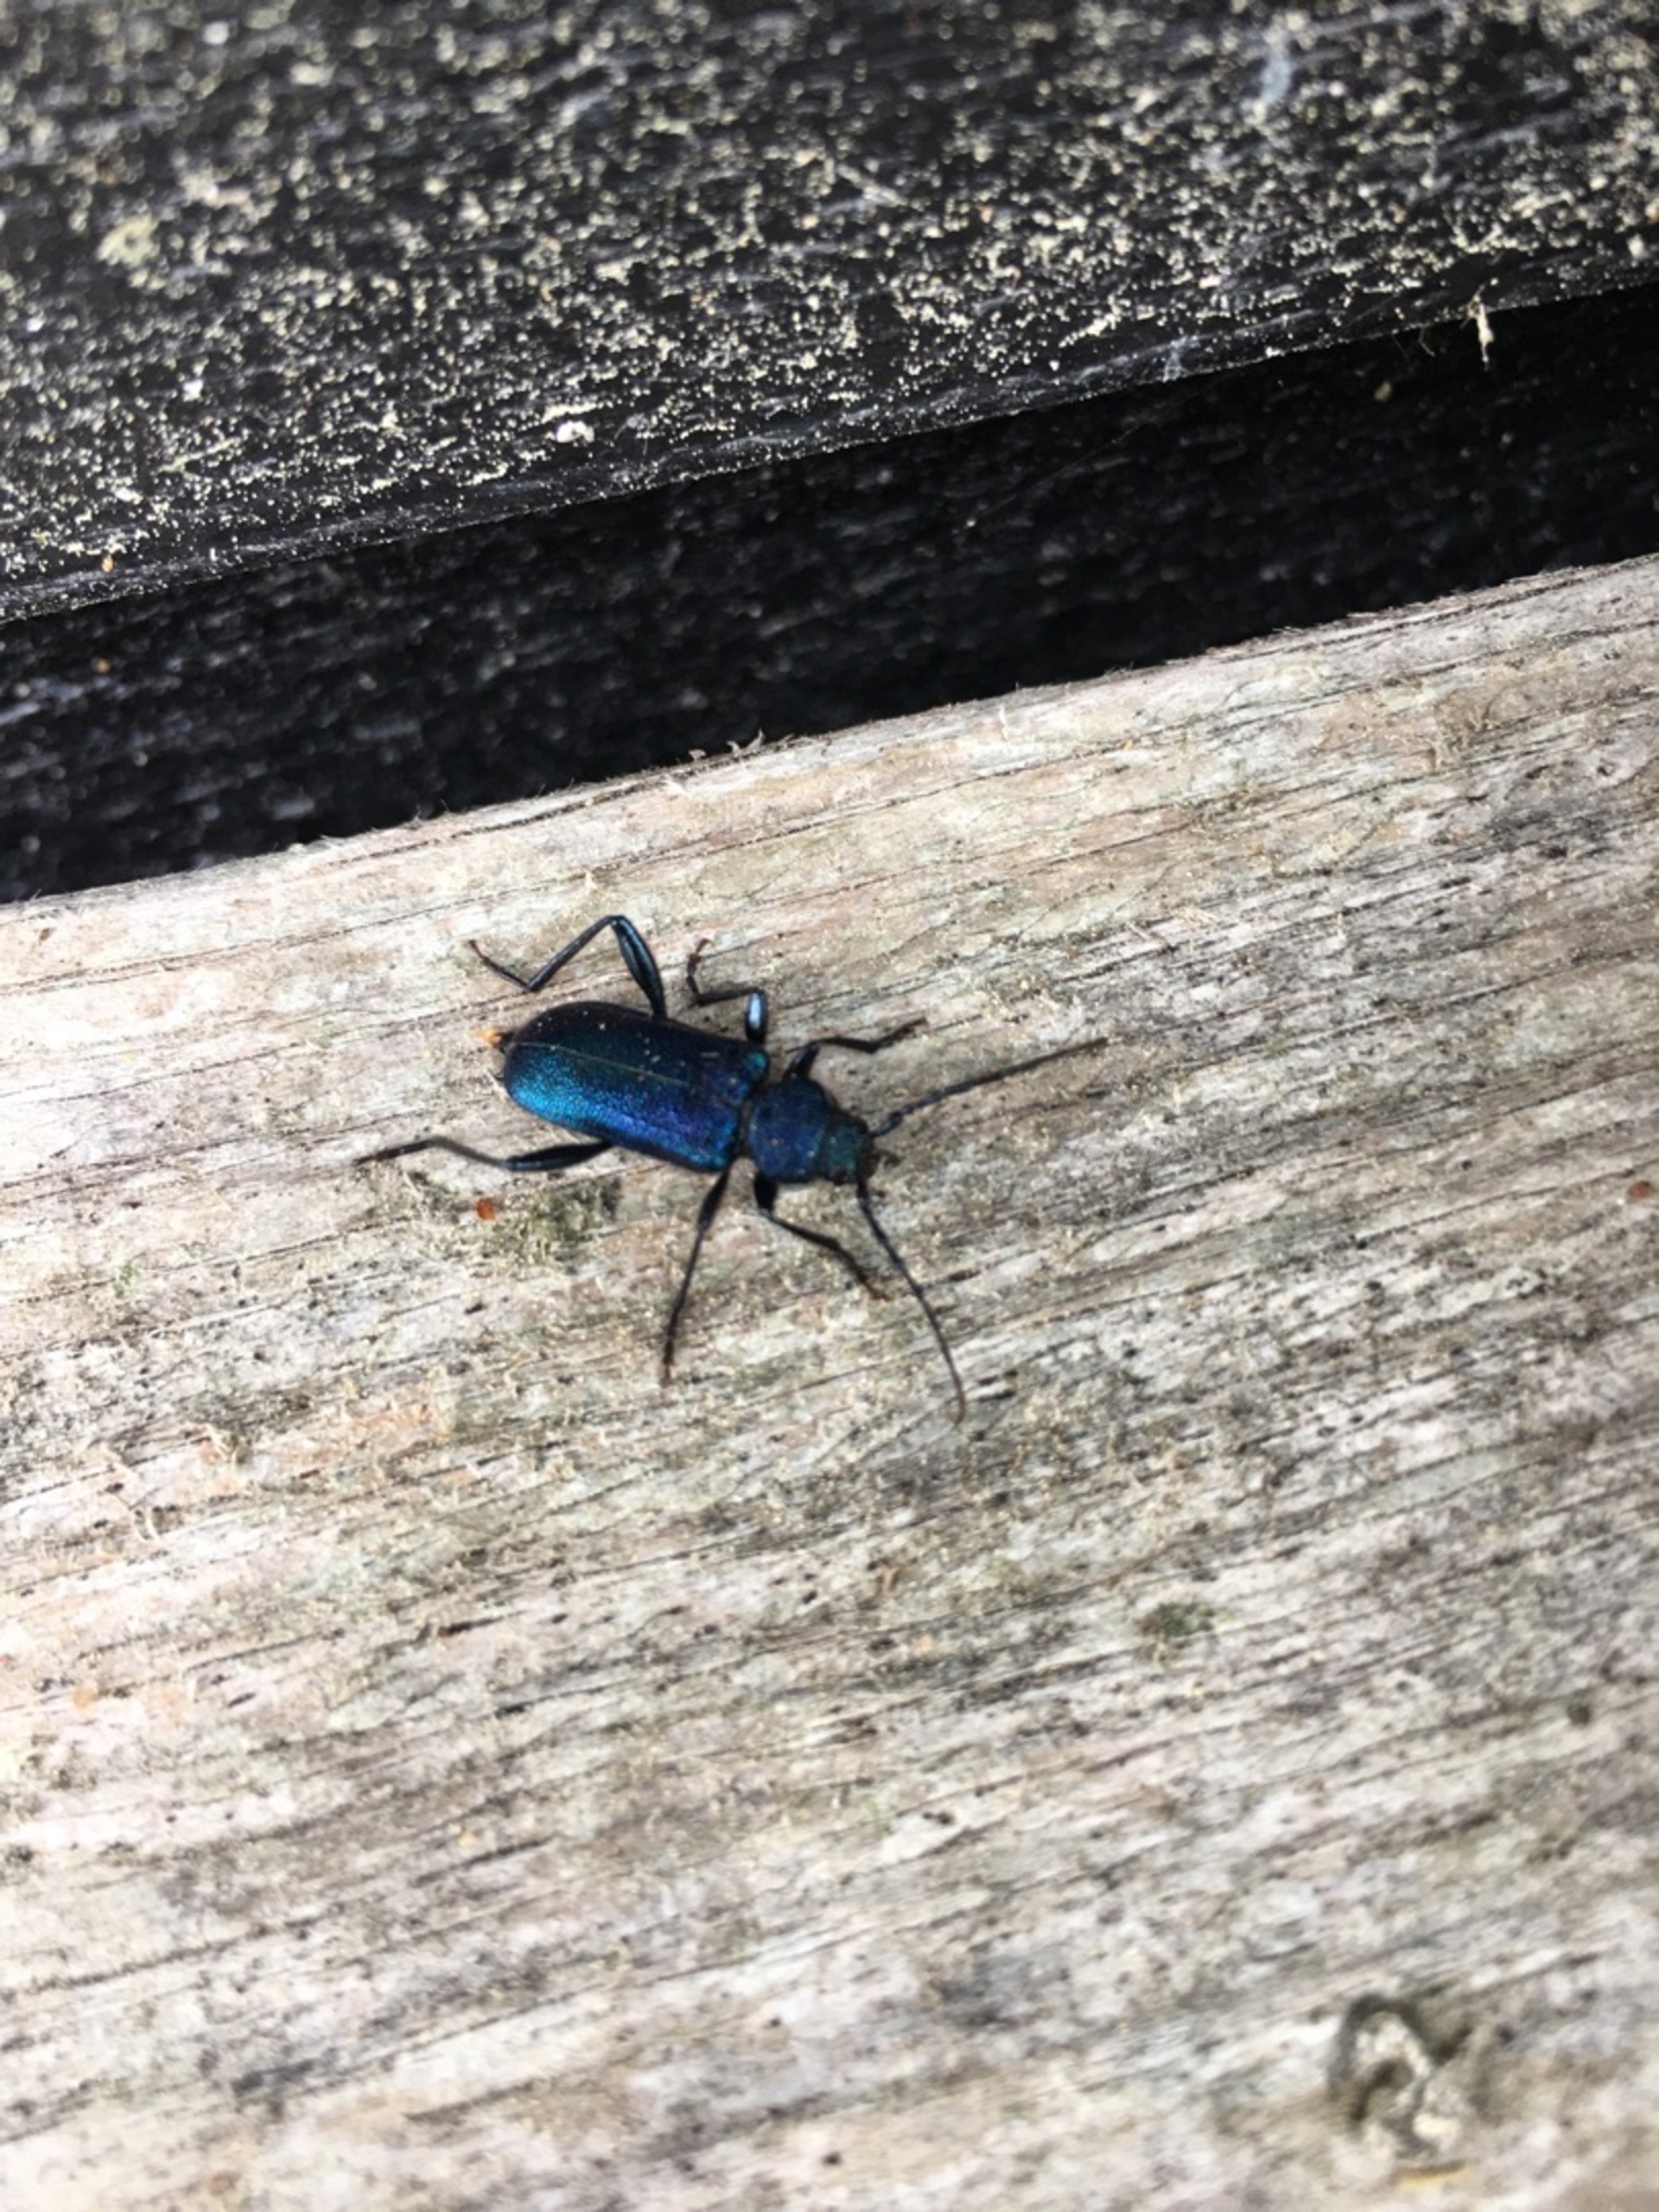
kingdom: Animalia
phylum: Arthropoda
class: Insecta
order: Coleoptera
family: Cerambycidae
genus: Agapanthia
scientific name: Agapanthia violacea
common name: Violbuk
